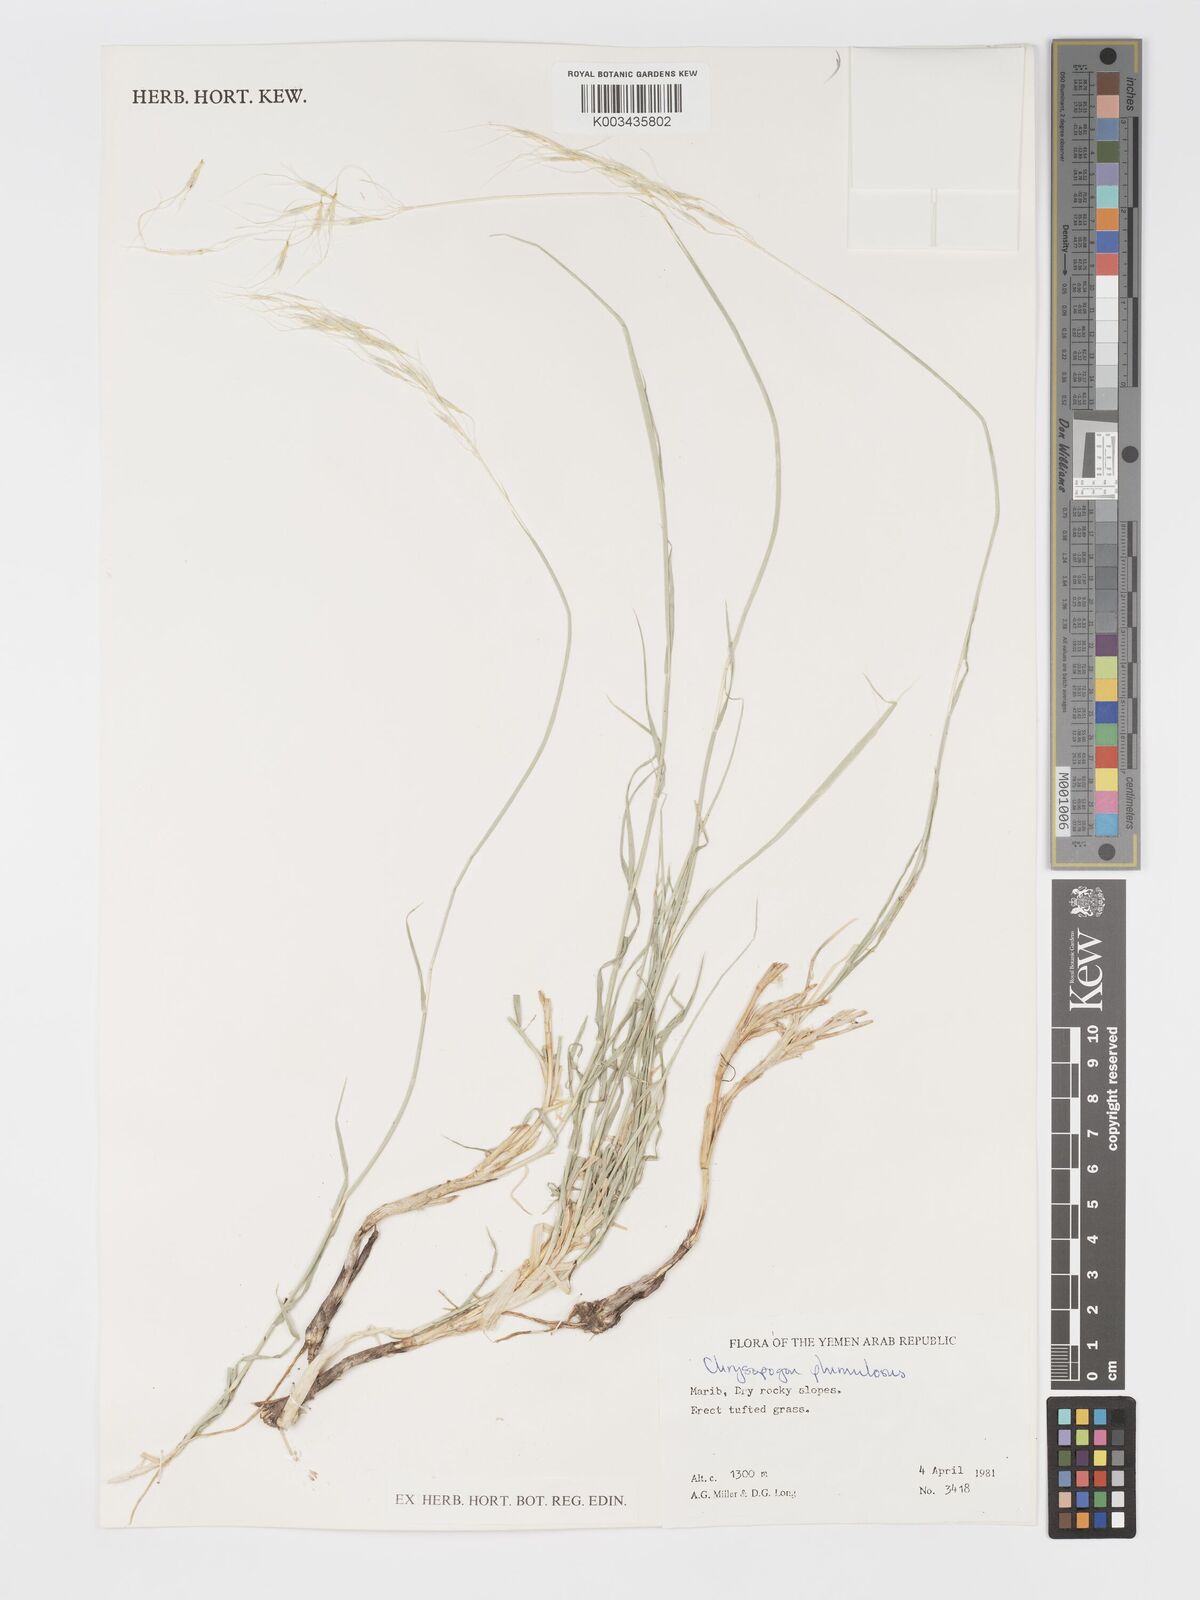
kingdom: Plantae
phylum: Tracheophyta
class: Liliopsida
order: Poales
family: Poaceae
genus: Chrysopogon
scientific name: Chrysopogon plumulosus
